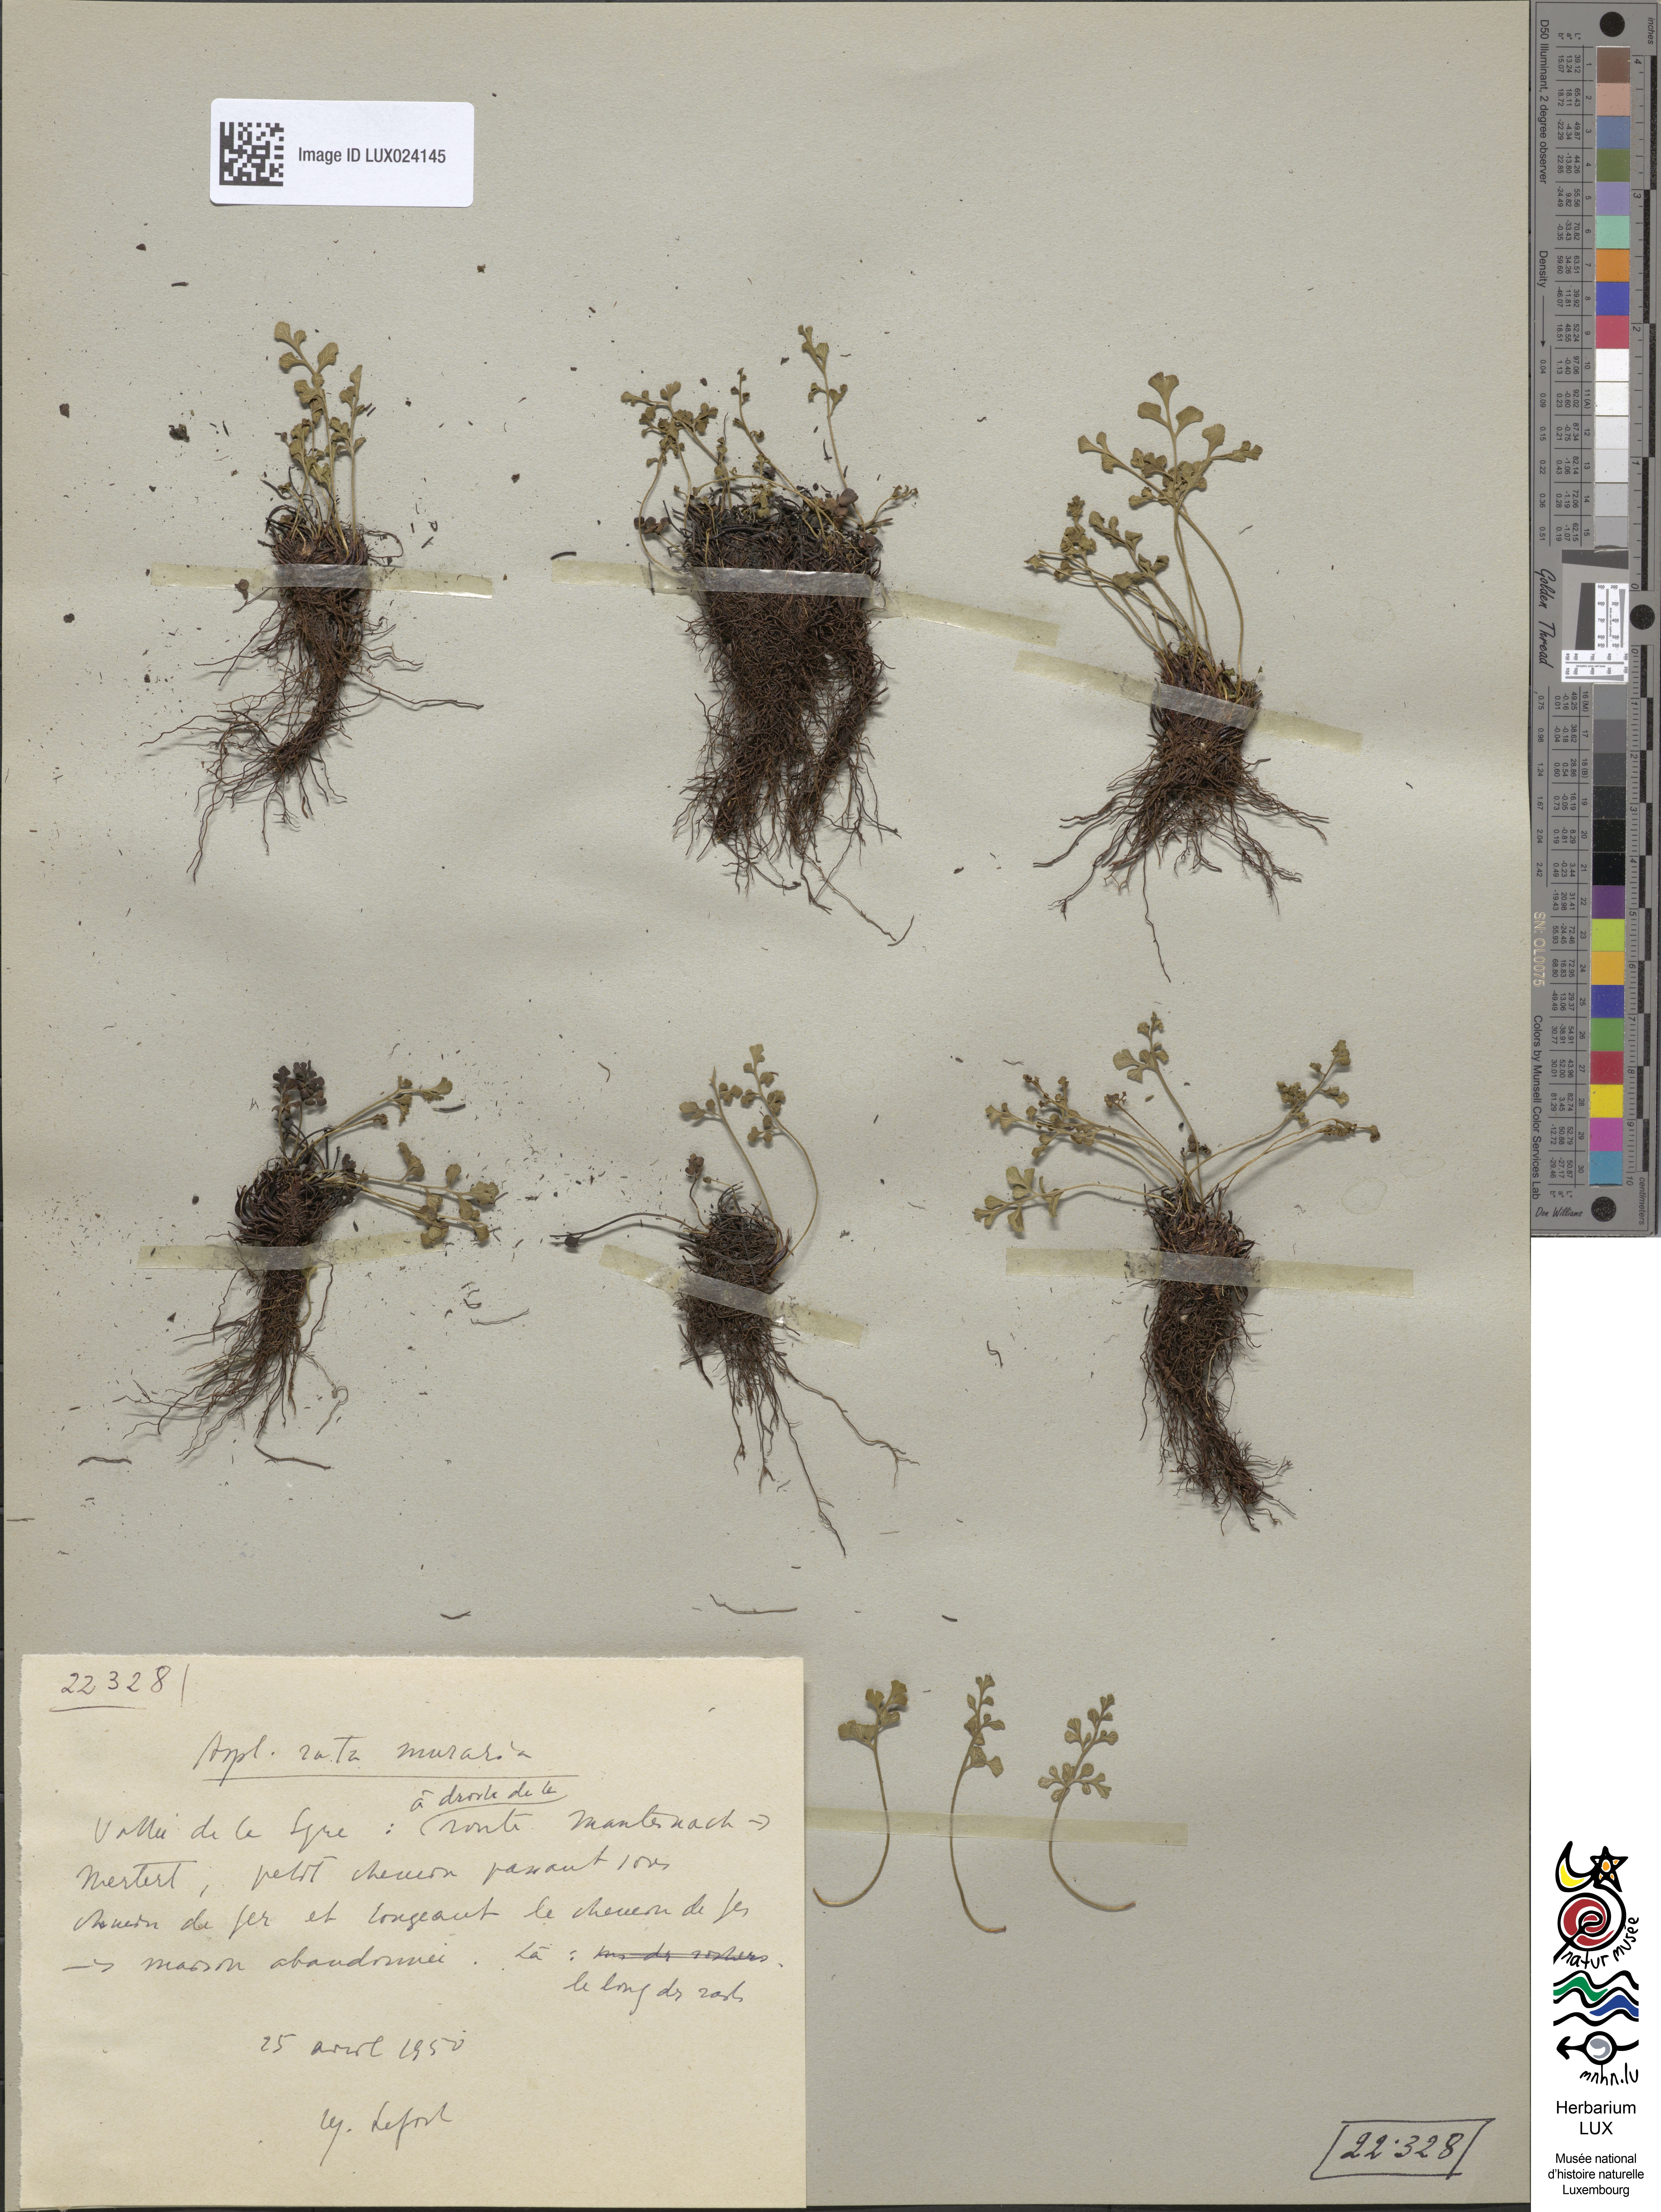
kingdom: Plantae
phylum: Tracheophyta
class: Polypodiopsida
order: Polypodiales
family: Aspleniaceae
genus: Asplenium
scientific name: Asplenium ruta-muraria
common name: Wall-rue
